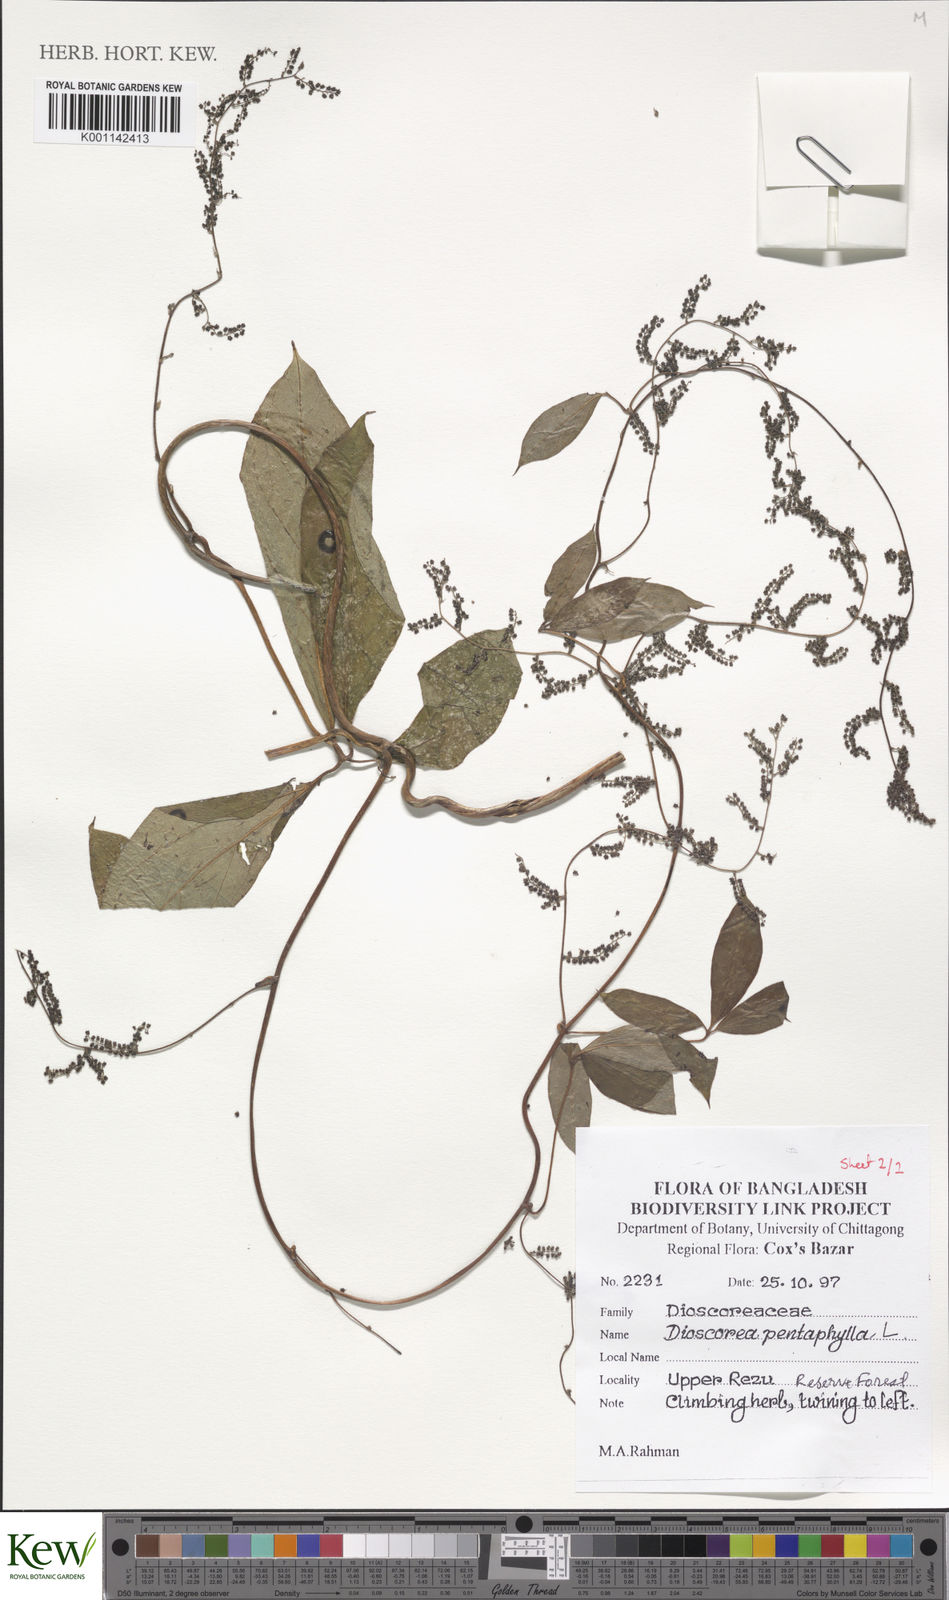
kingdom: Plantae
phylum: Tracheophyta
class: Liliopsida
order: Dioscoreales
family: Dioscoreaceae
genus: Dioscorea
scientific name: Dioscorea pentaphylla
